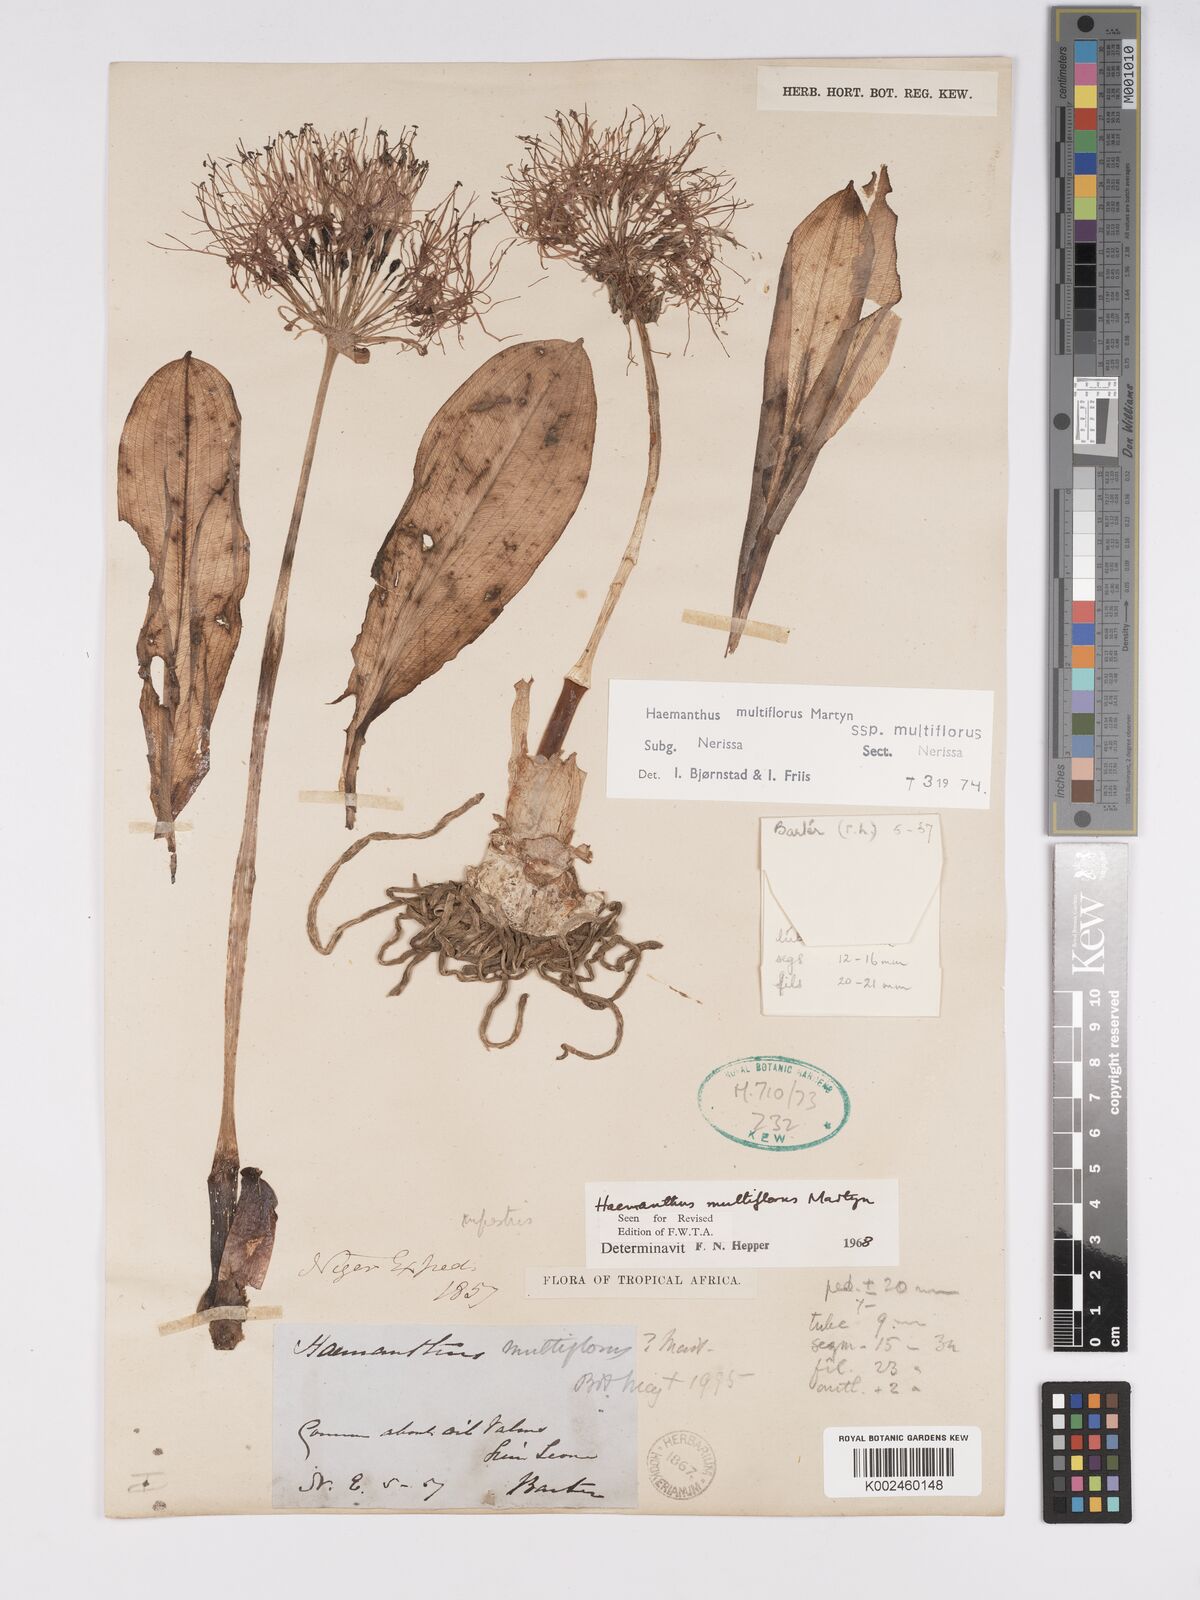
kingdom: Plantae
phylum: Tracheophyta
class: Liliopsida
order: Asparagales
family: Amaryllidaceae
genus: Scadoxus
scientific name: Scadoxus multiflorus
